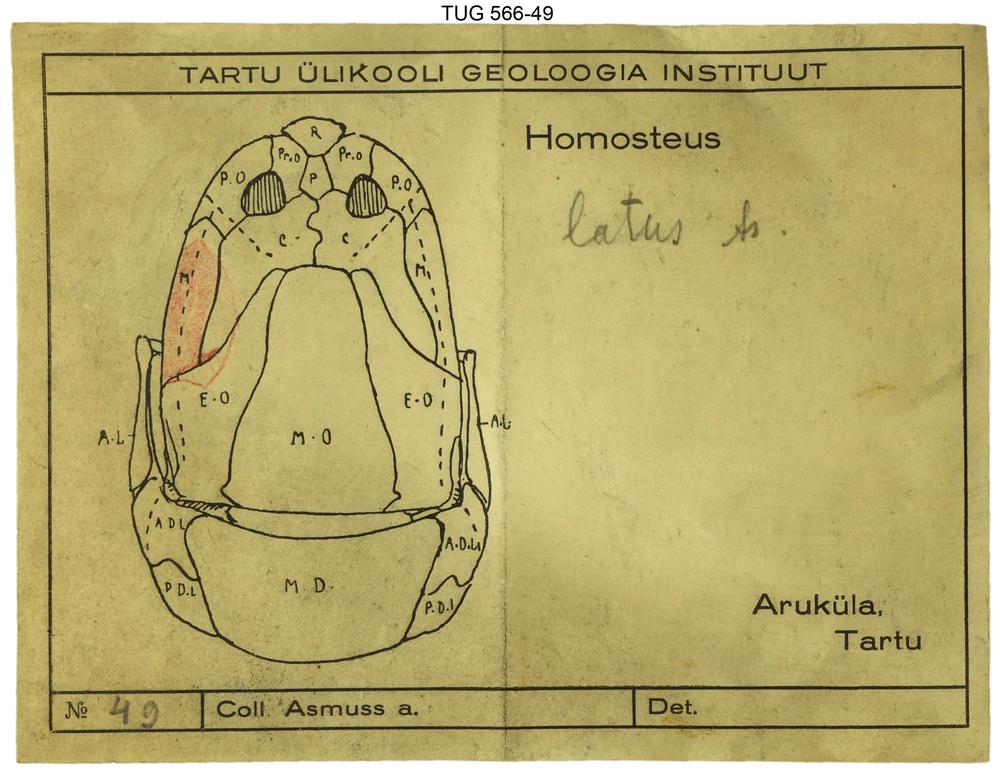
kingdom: Animalia
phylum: Chordata
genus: Homosteus
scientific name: Homosteus latus
